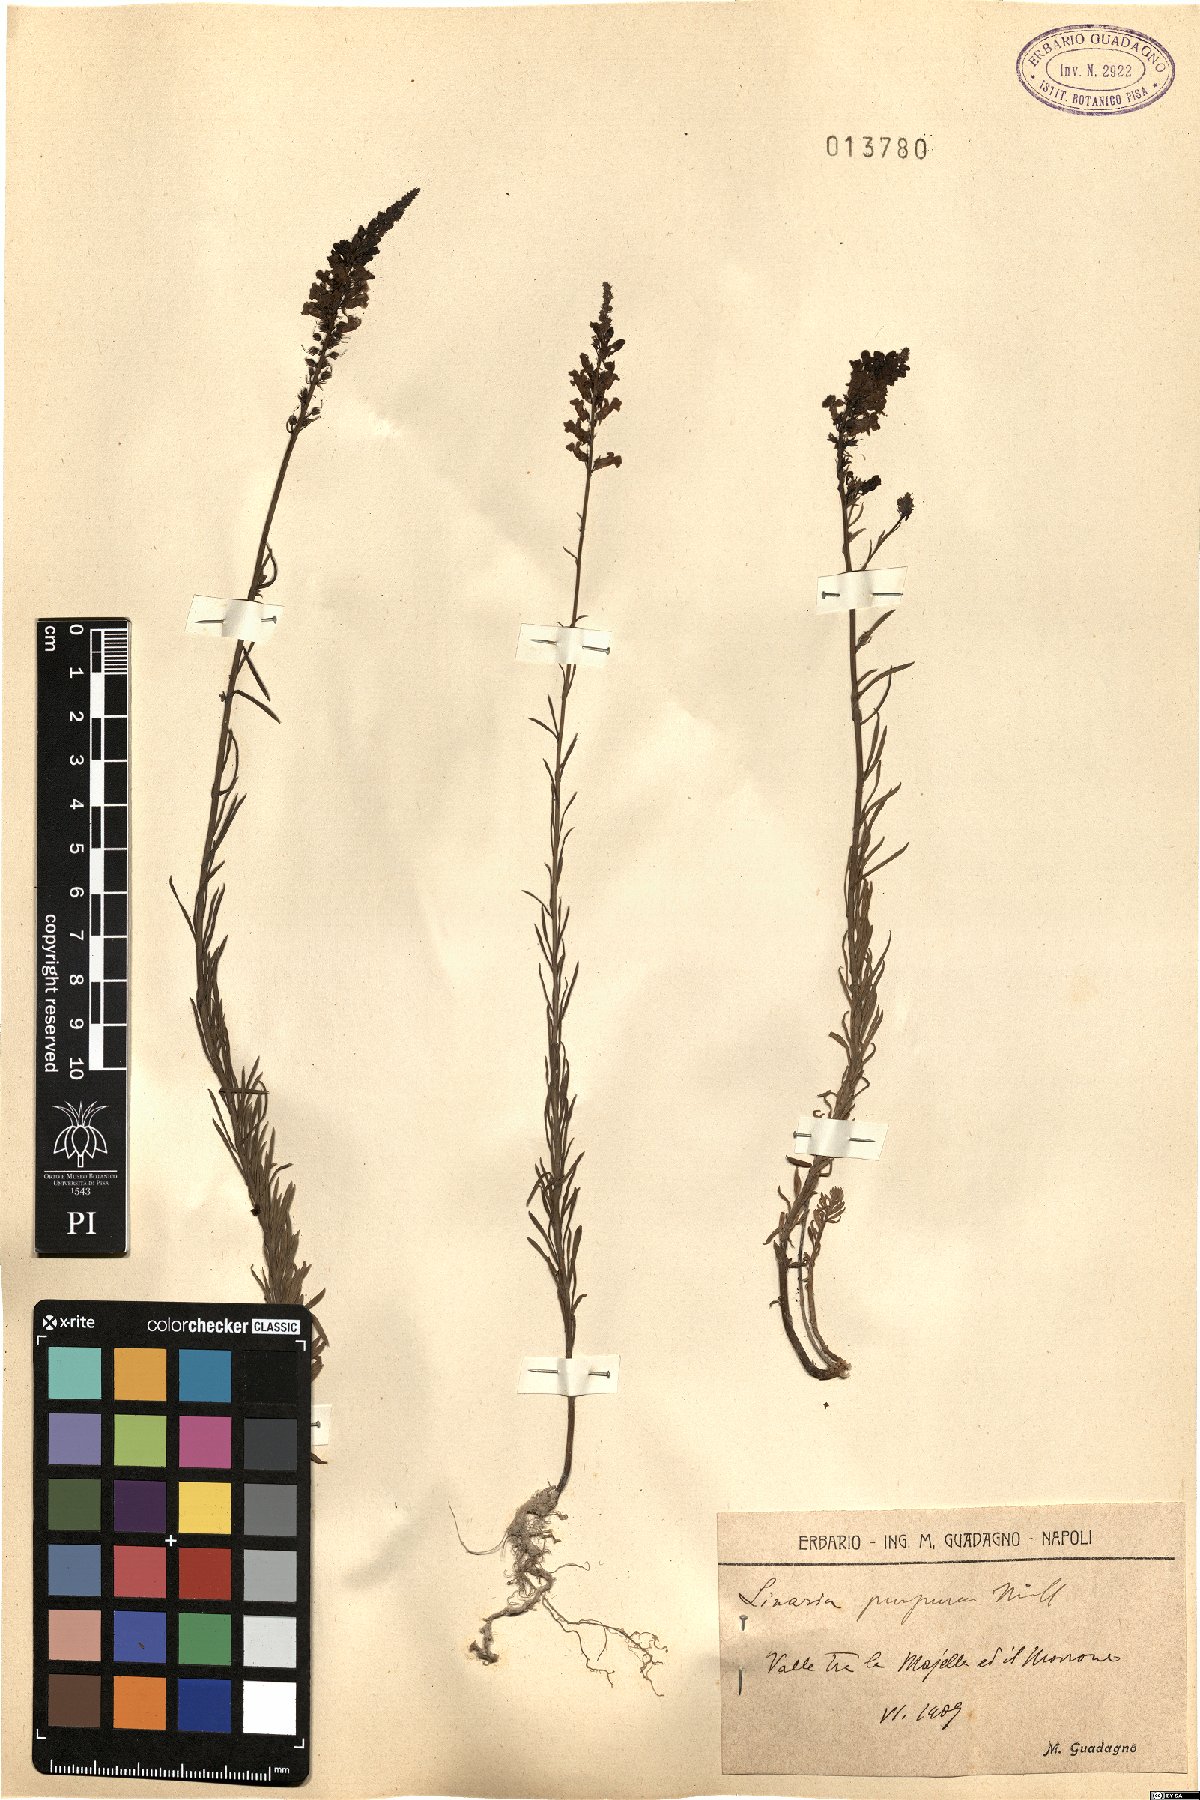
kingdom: Plantae
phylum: Tracheophyta
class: Magnoliopsida
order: Lamiales
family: Plantaginaceae
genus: Linaria
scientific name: Linaria purpurea
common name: Purple toadflax
